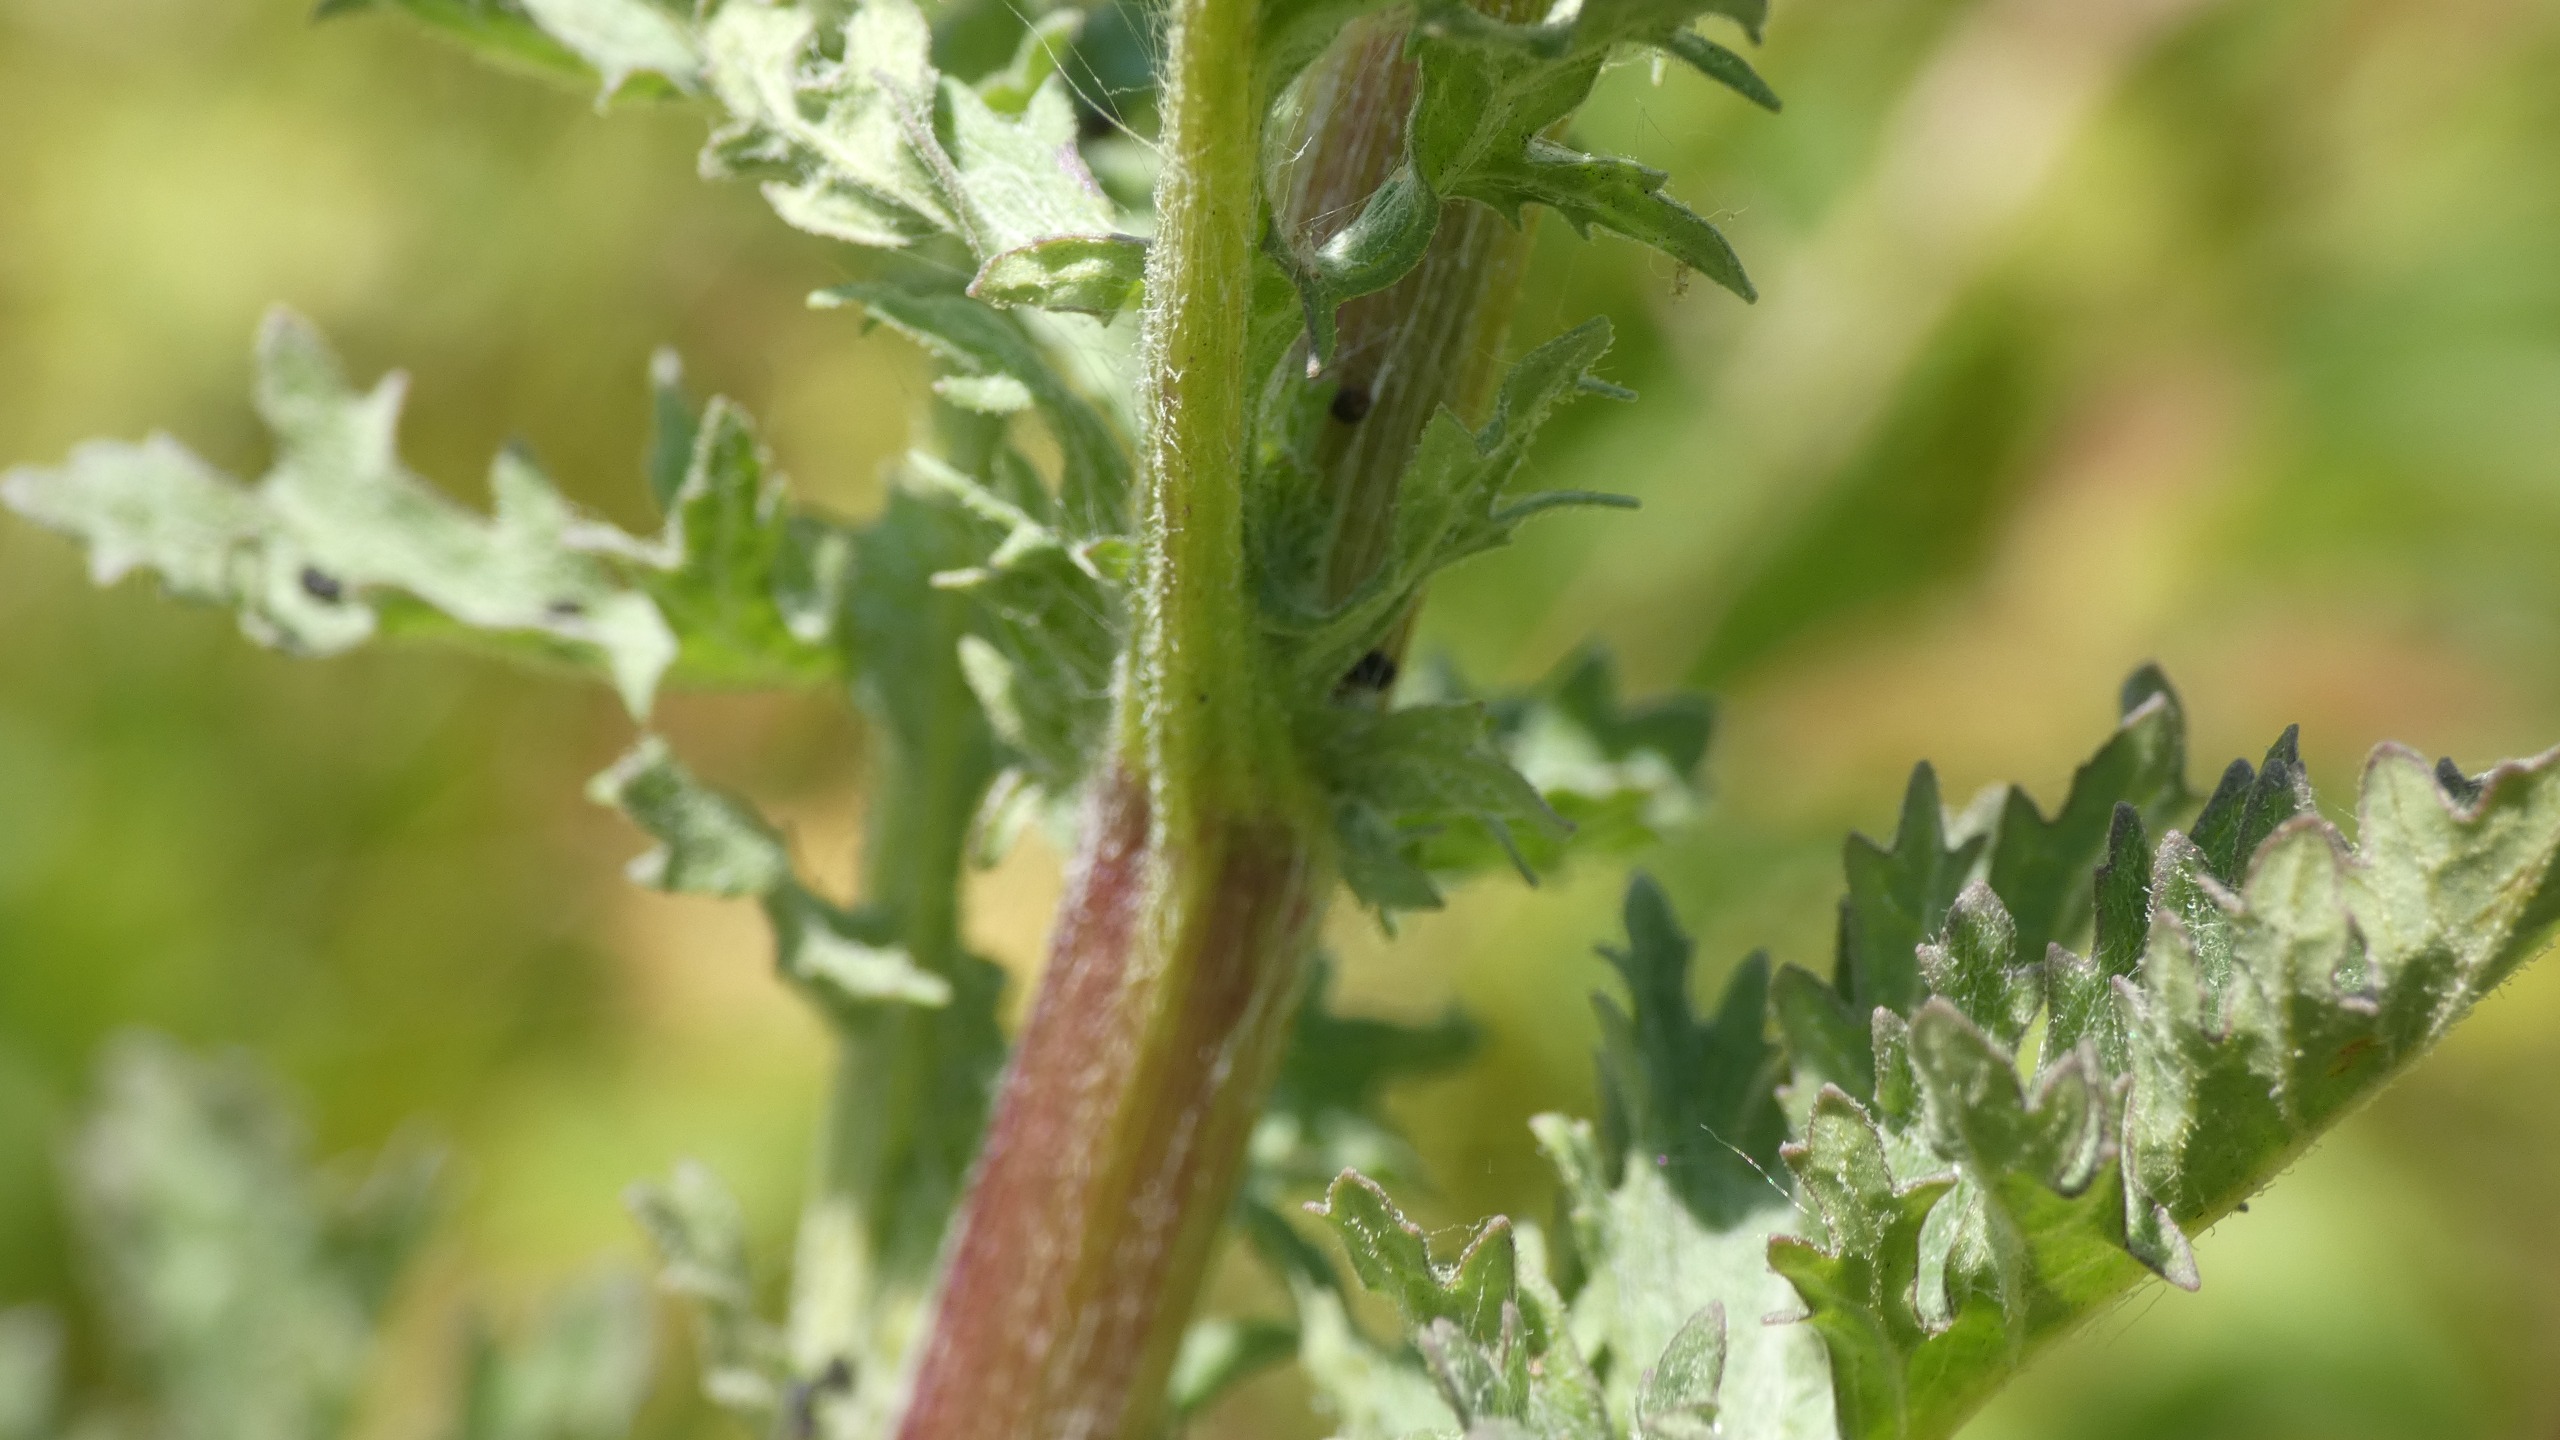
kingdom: Plantae
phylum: Tracheophyta
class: Magnoliopsida
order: Asterales
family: Asteraceae
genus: Jacobaea
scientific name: Jacobaea vulgaris
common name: Eng-brandbæger
